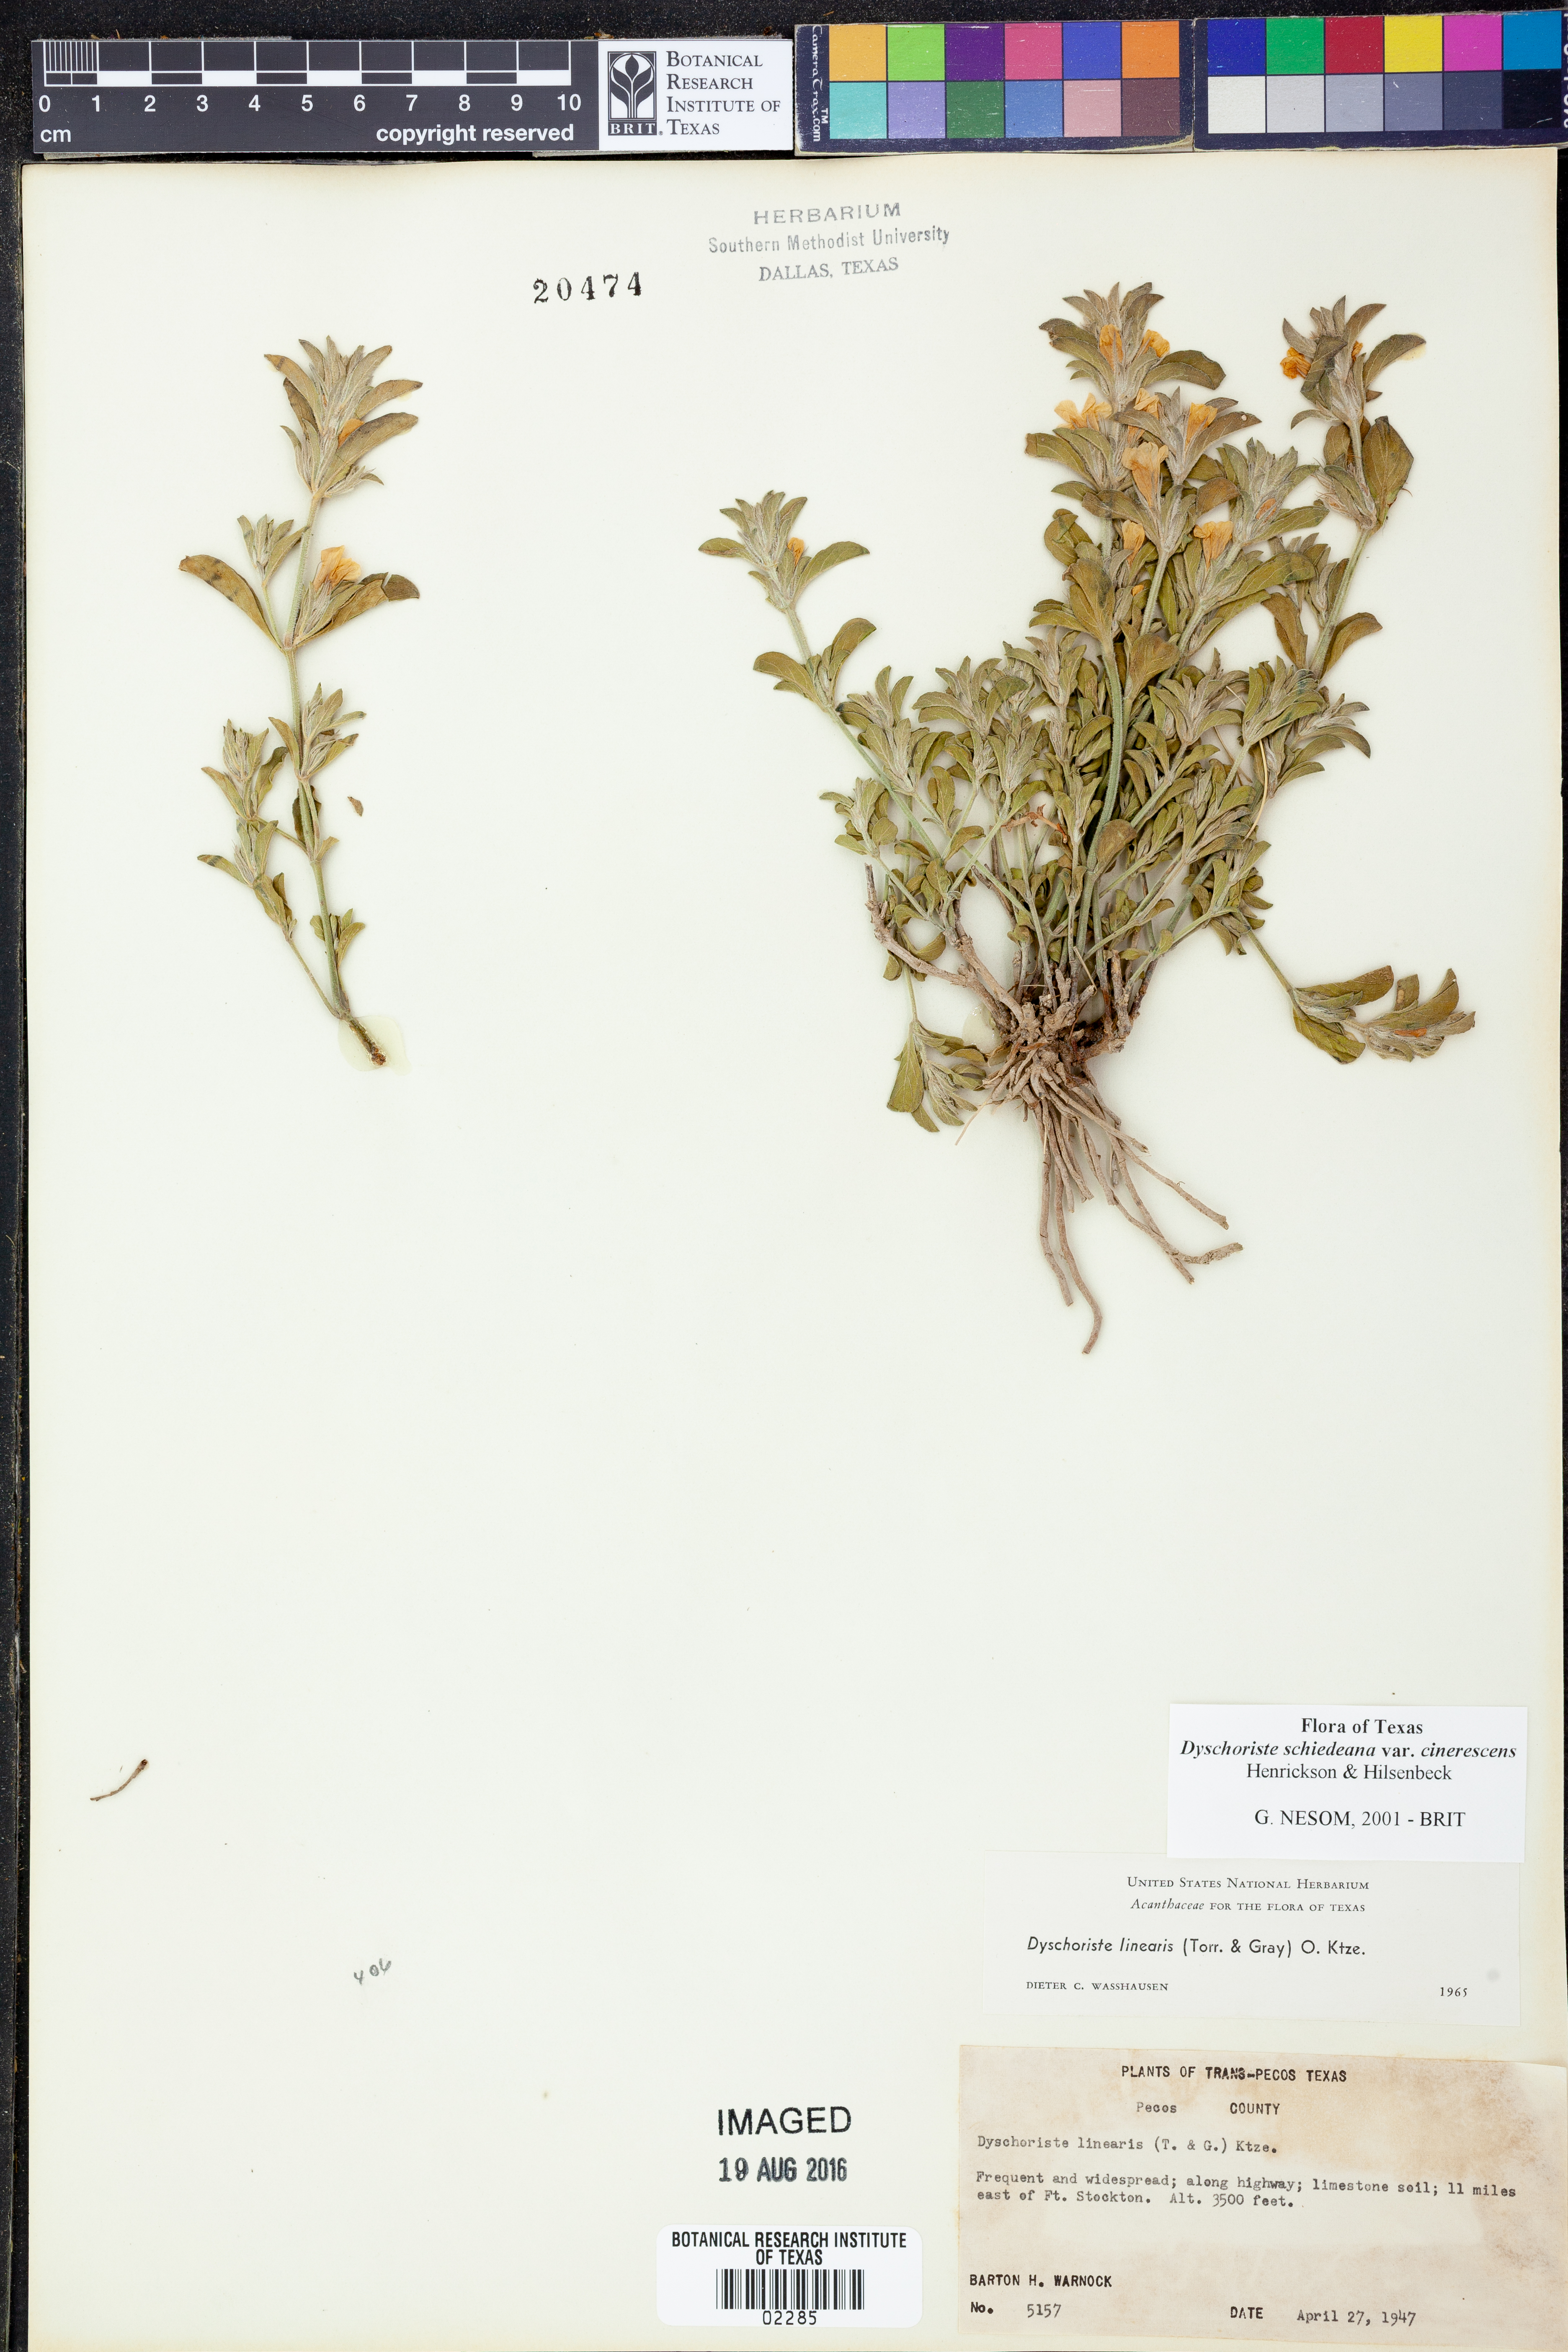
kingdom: Plantae
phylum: Tracheophyta
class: Magnoliopsida
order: Lamiales
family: Acanthaceae
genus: Dyschoriste
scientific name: Dyschoriste cinerascens
